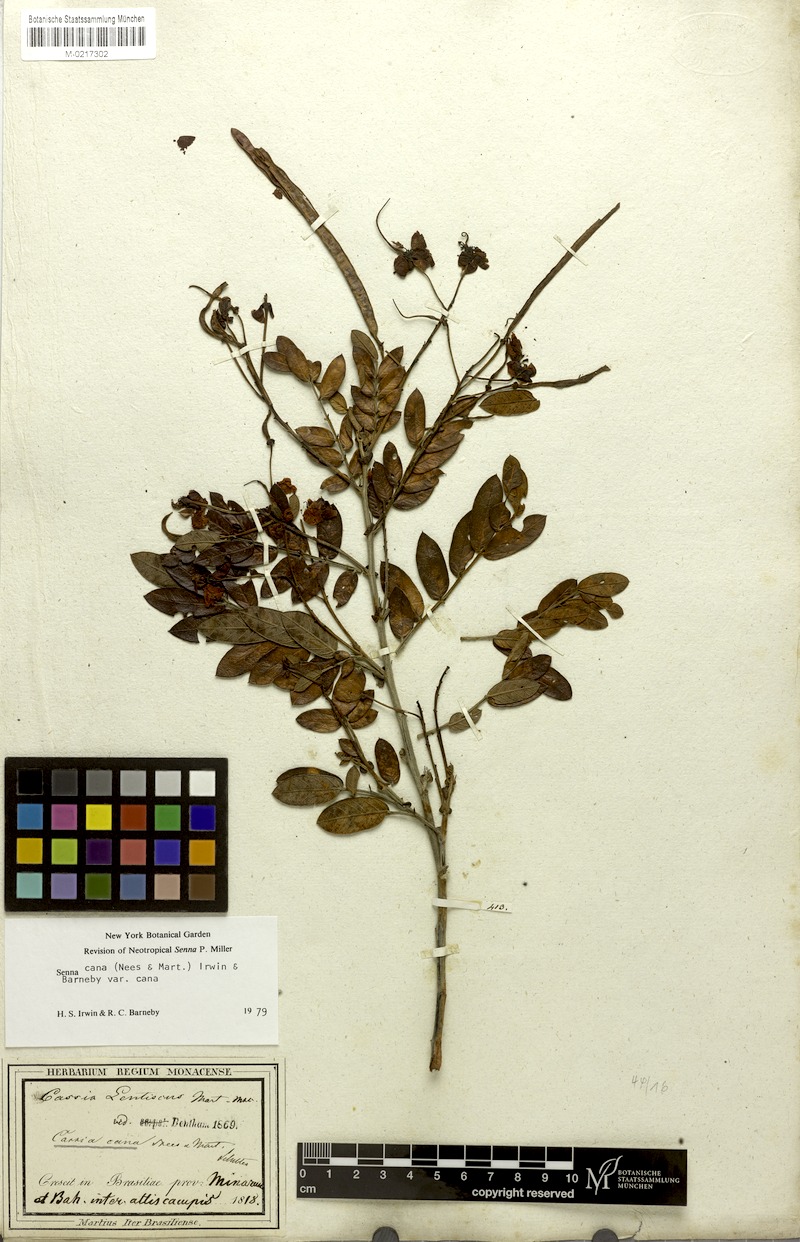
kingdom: Plantae
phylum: Tracheophyta
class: Magnoliopsida
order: Fabales
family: Fabaceae
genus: Senna
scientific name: Senna cana
